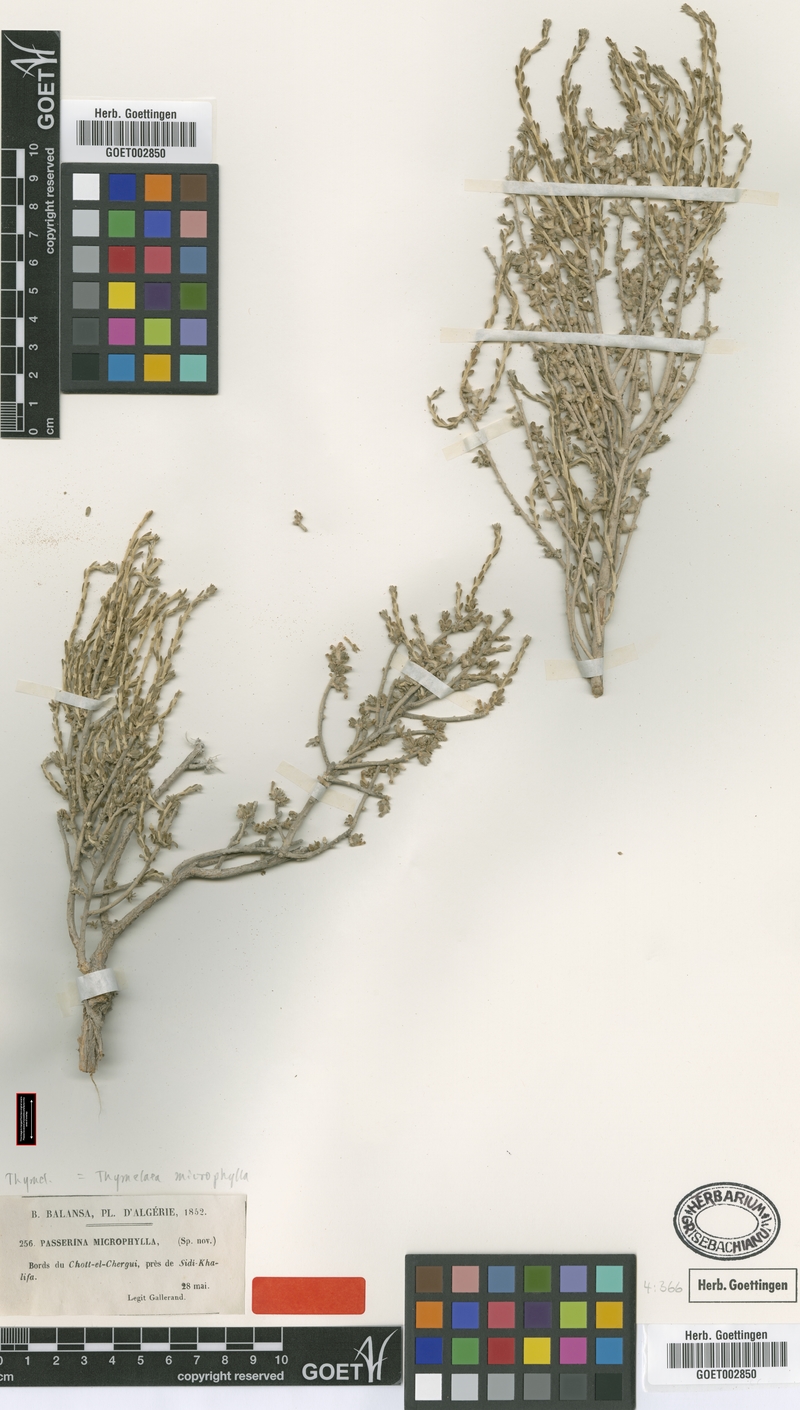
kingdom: Plantae
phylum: Tracheophyta
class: Magnoliopsida
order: Malvales
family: Thymelaeaceae
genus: Thymelaea
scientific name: Thymelaea microphylla
